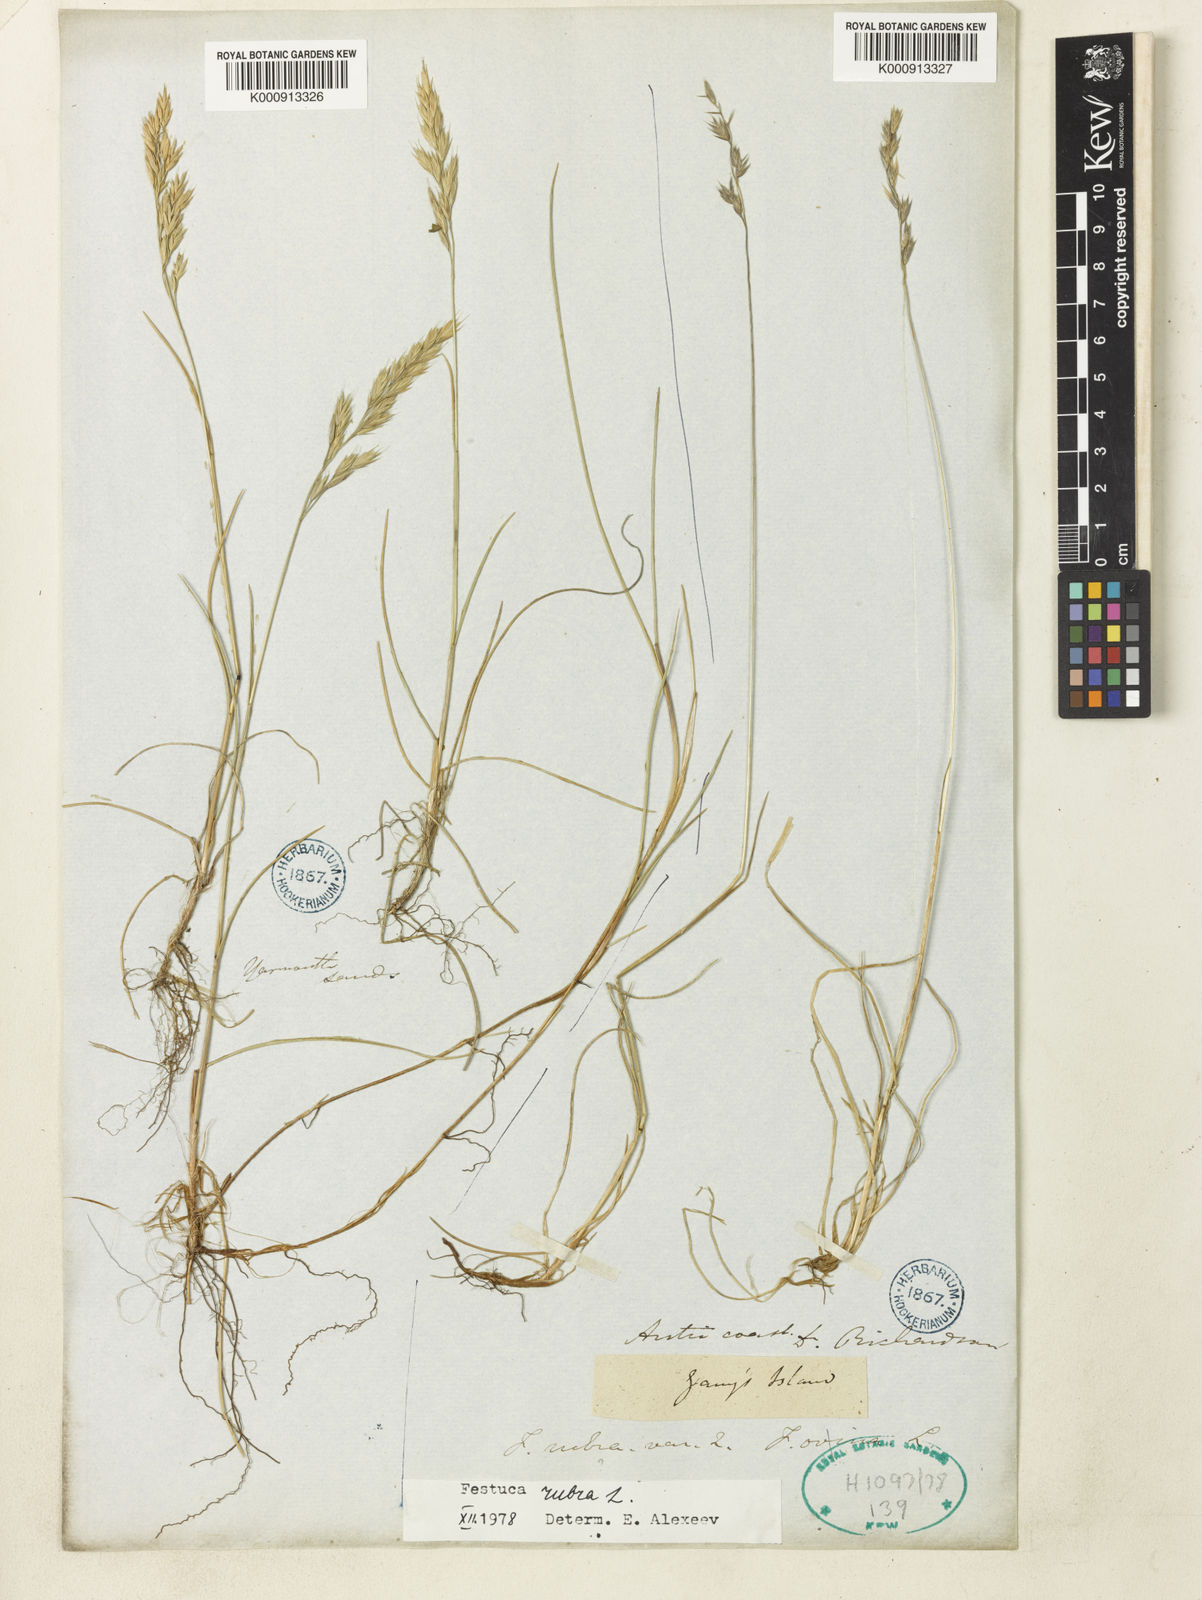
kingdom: Plantae
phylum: Tracheophyta
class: Liliopsida
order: Poales
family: Poaceae
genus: Festuca
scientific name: Festuca rubra
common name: Red fescue
